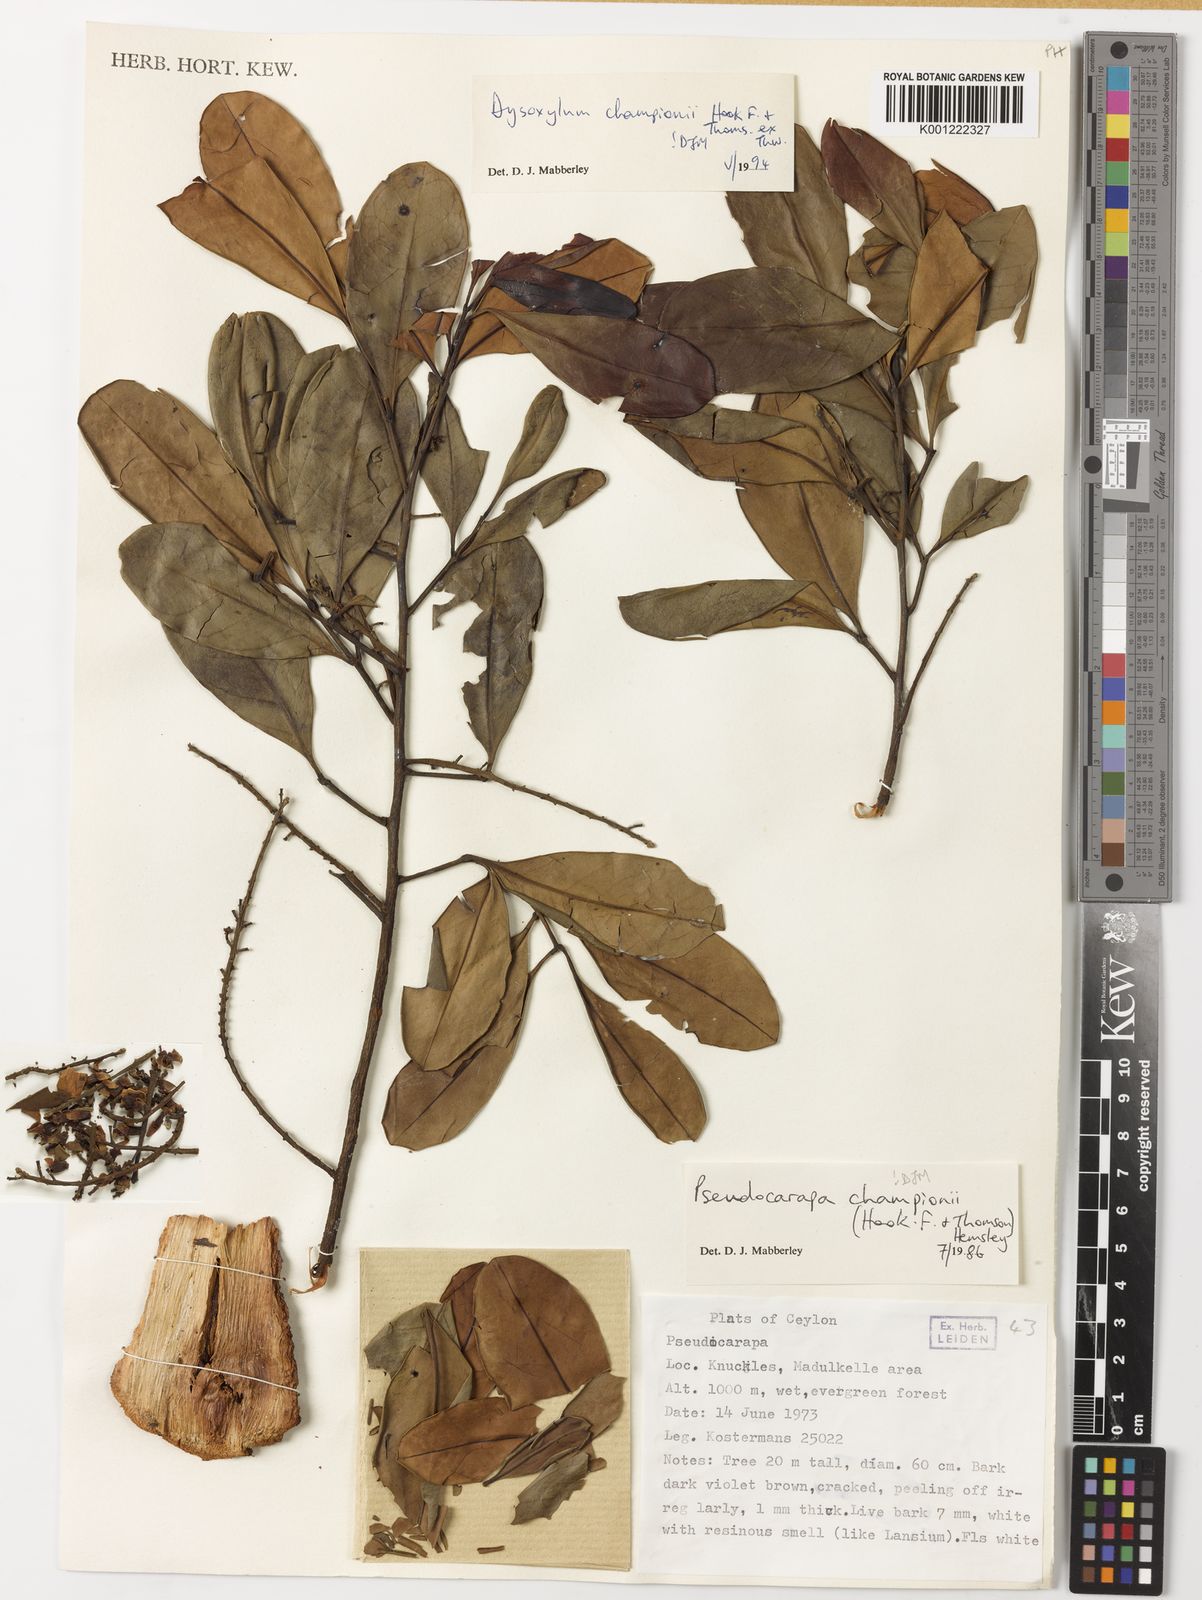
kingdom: Plantae
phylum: Tracheophyta
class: Magnoliopsida
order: Sapindales
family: Meliaceae
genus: Pseudocarapa
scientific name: Pseudocarapa championii
